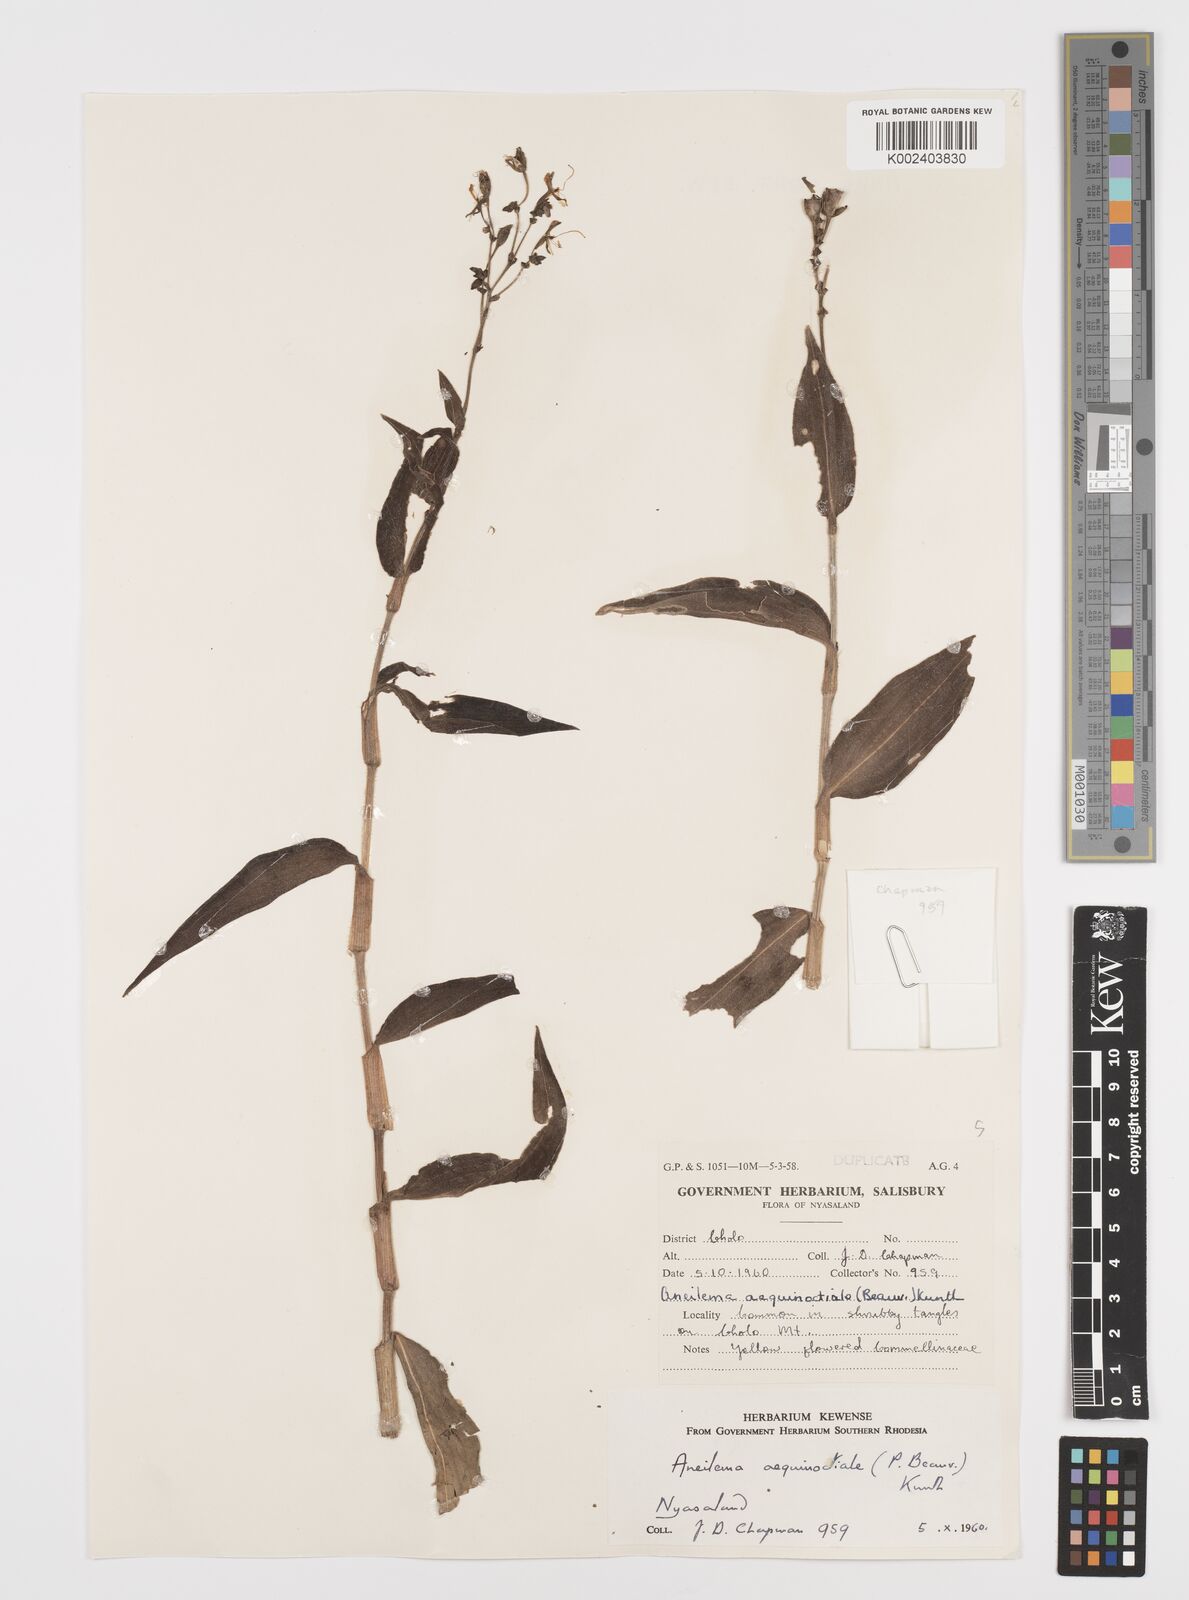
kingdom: Plantae
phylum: Tracheophyta
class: Liliopsida
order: Commelinales
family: Commelinaceae
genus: Aneilema
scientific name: Aneilema aequinoctiale
